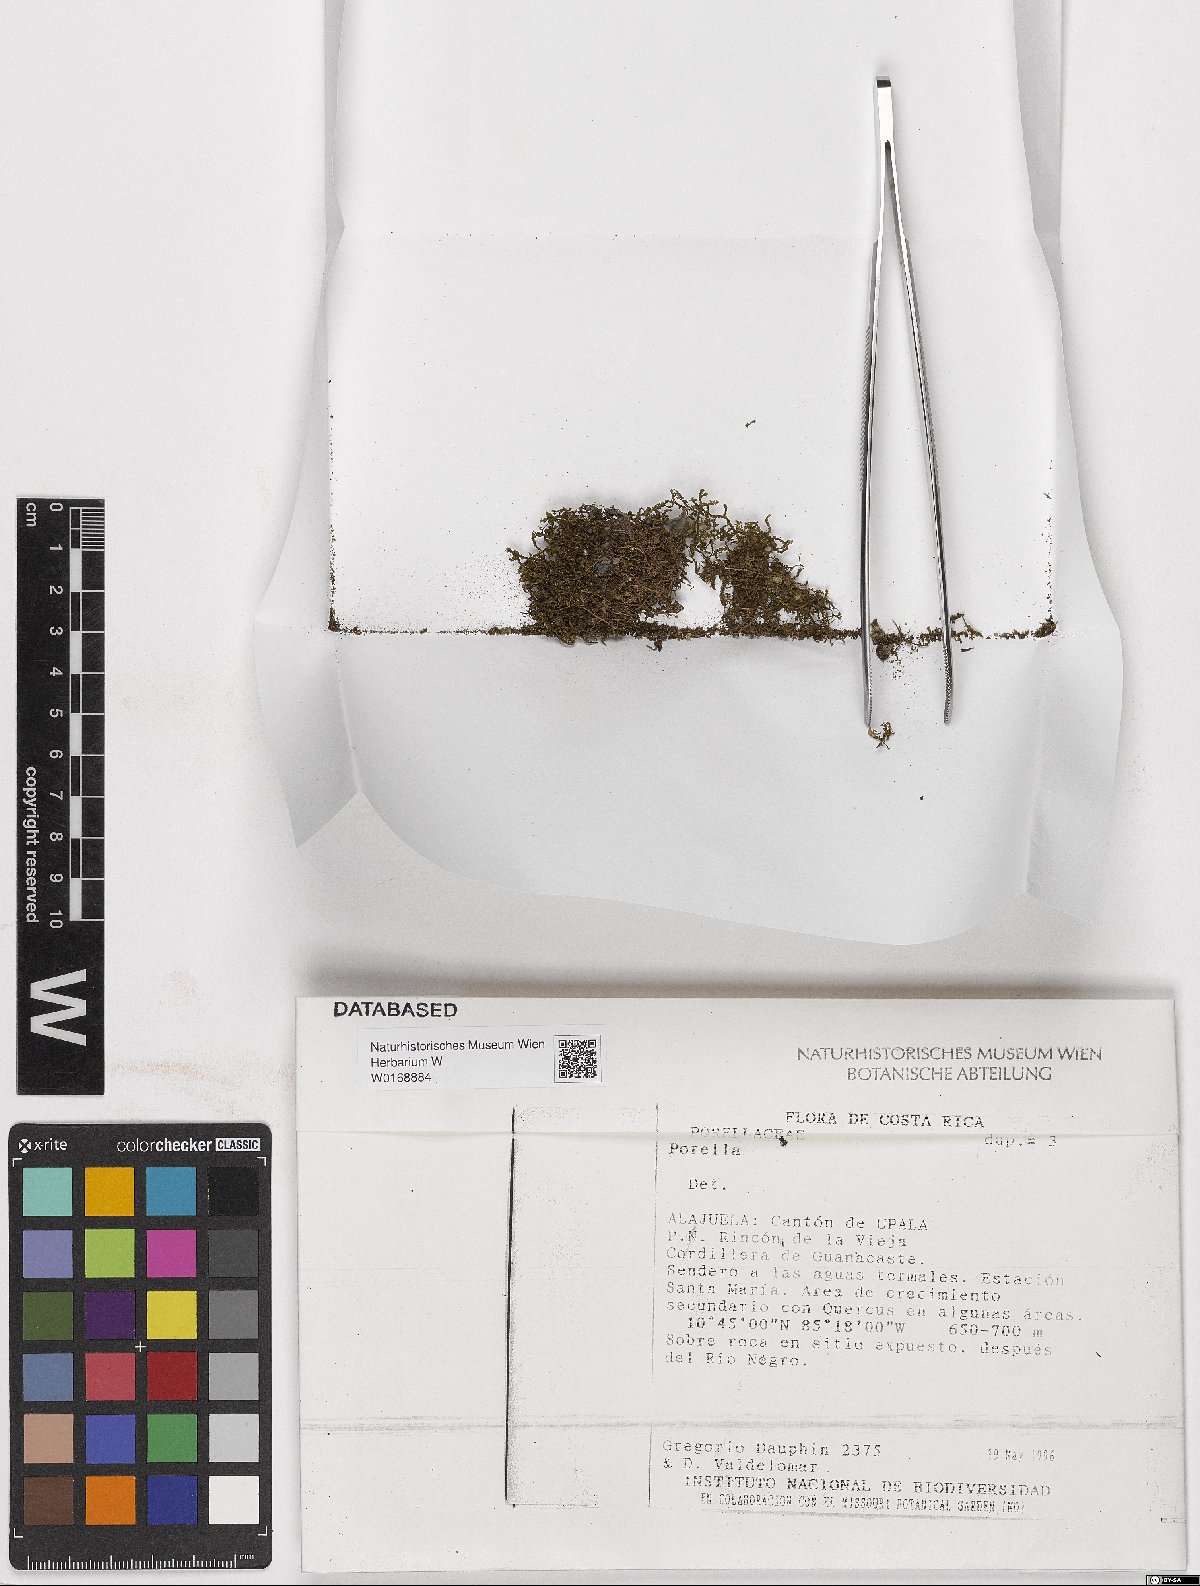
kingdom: Plantae
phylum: Marchantiophyta
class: Jungermanniopsida
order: Porellales
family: Porellaceae
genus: Porella
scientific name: Porella
